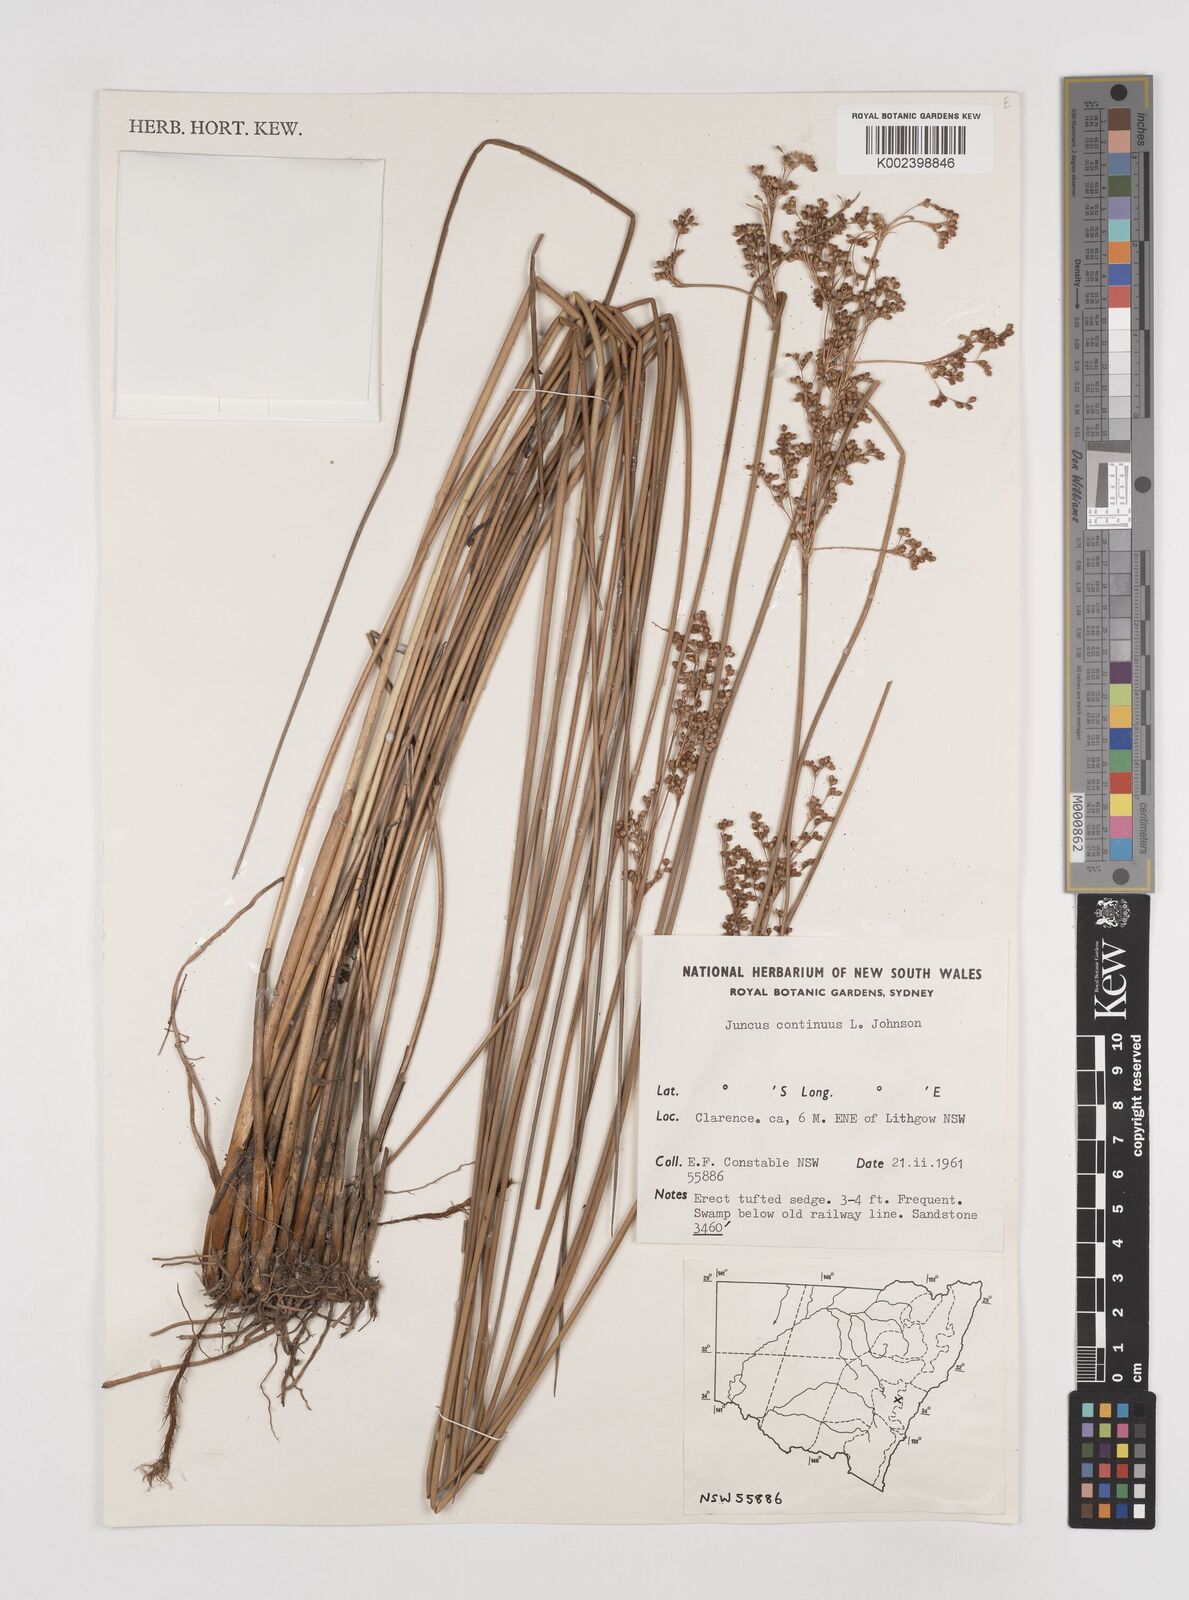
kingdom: Plantae
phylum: Tracheophyta
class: Liliopsida
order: Poales
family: Juncaceae
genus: Juncus
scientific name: Juncus continuus
